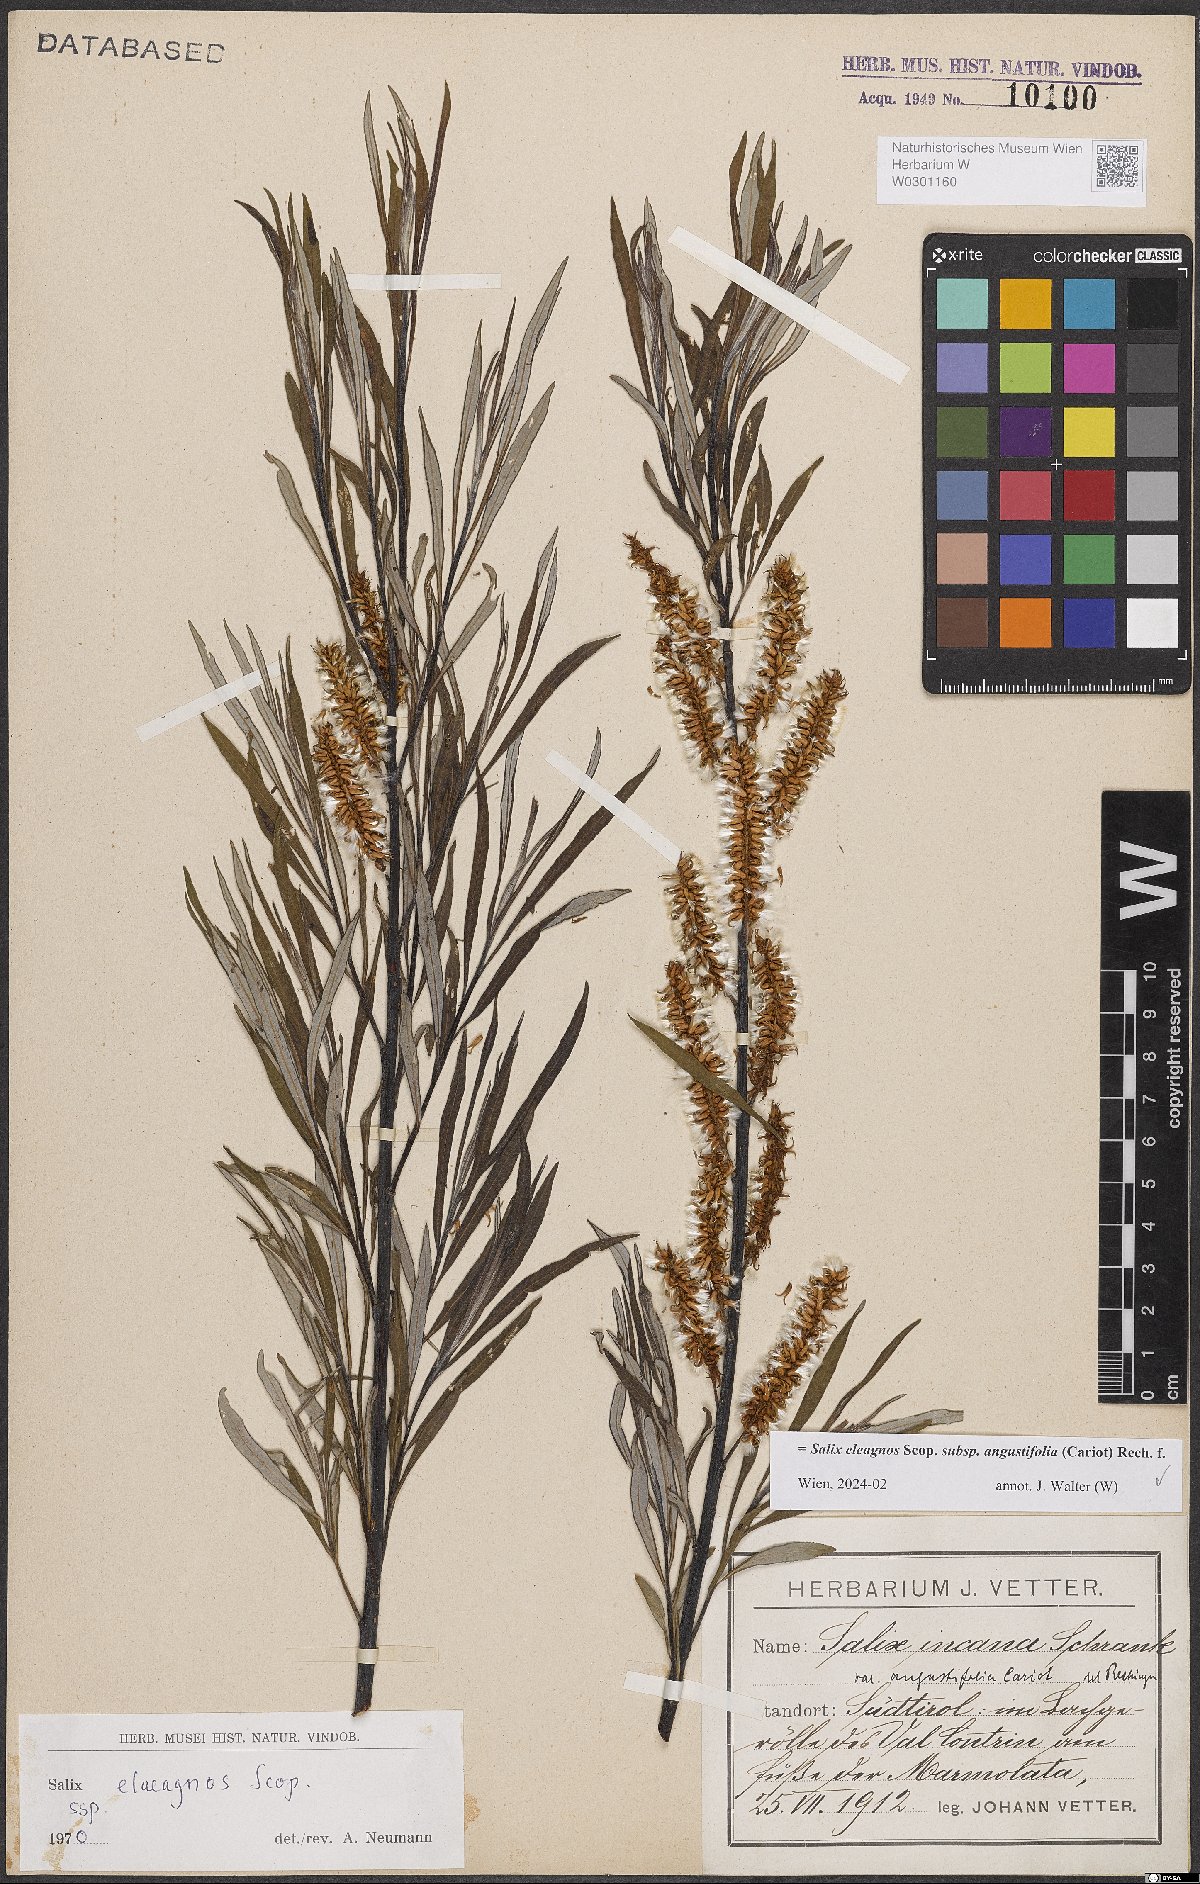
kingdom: Plantae
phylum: Tracheophyta
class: Magnoliopsida
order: Malpighiales
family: Salicaceae
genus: Salix
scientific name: Salix eleagnos
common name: Elaeagnus willow
